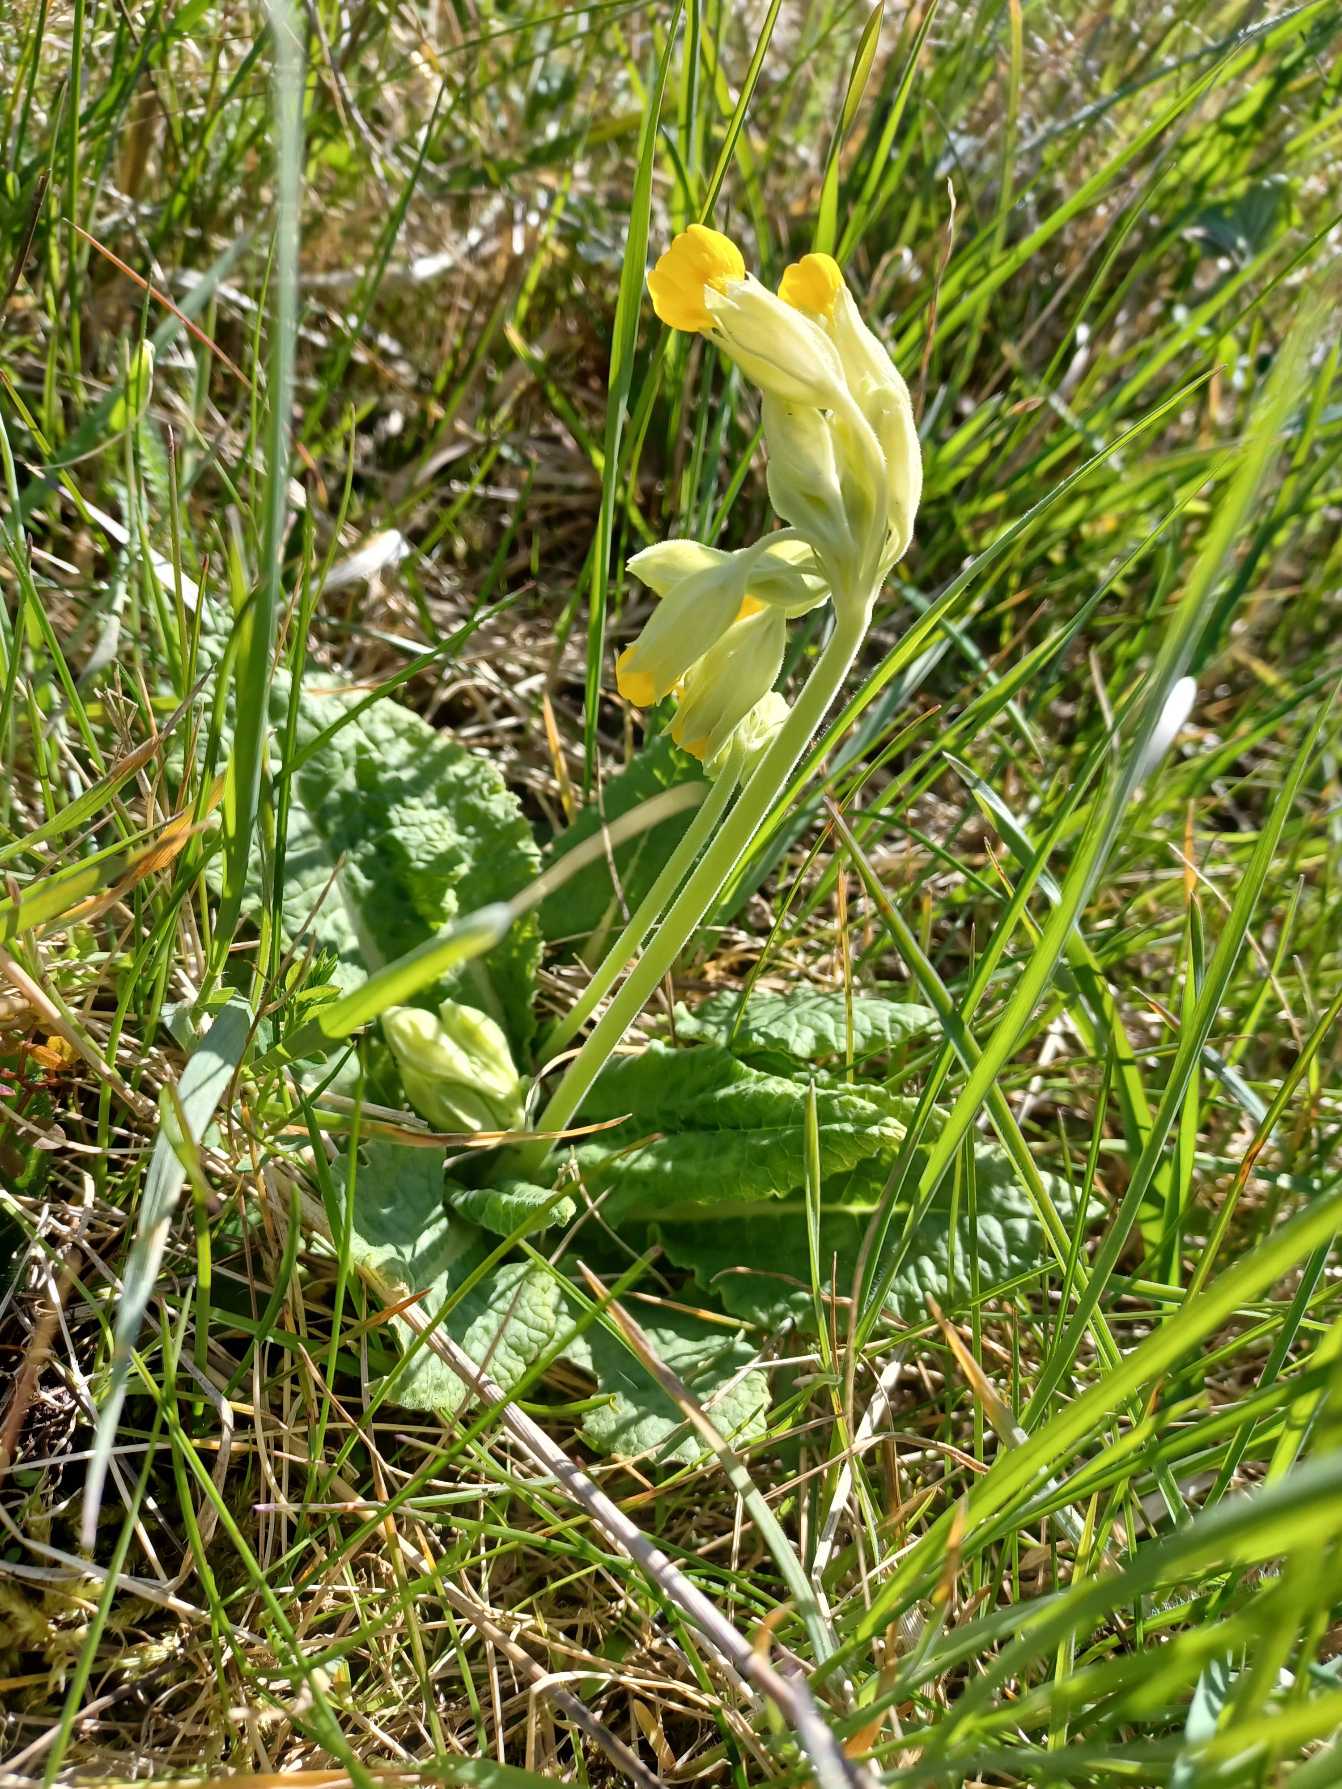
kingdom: Plantae
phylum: Tracheophyta
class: Magnoliopsida
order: Ericales
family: Primulaceae
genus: Primula
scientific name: Primula veris
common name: Hulkravet kodriver
